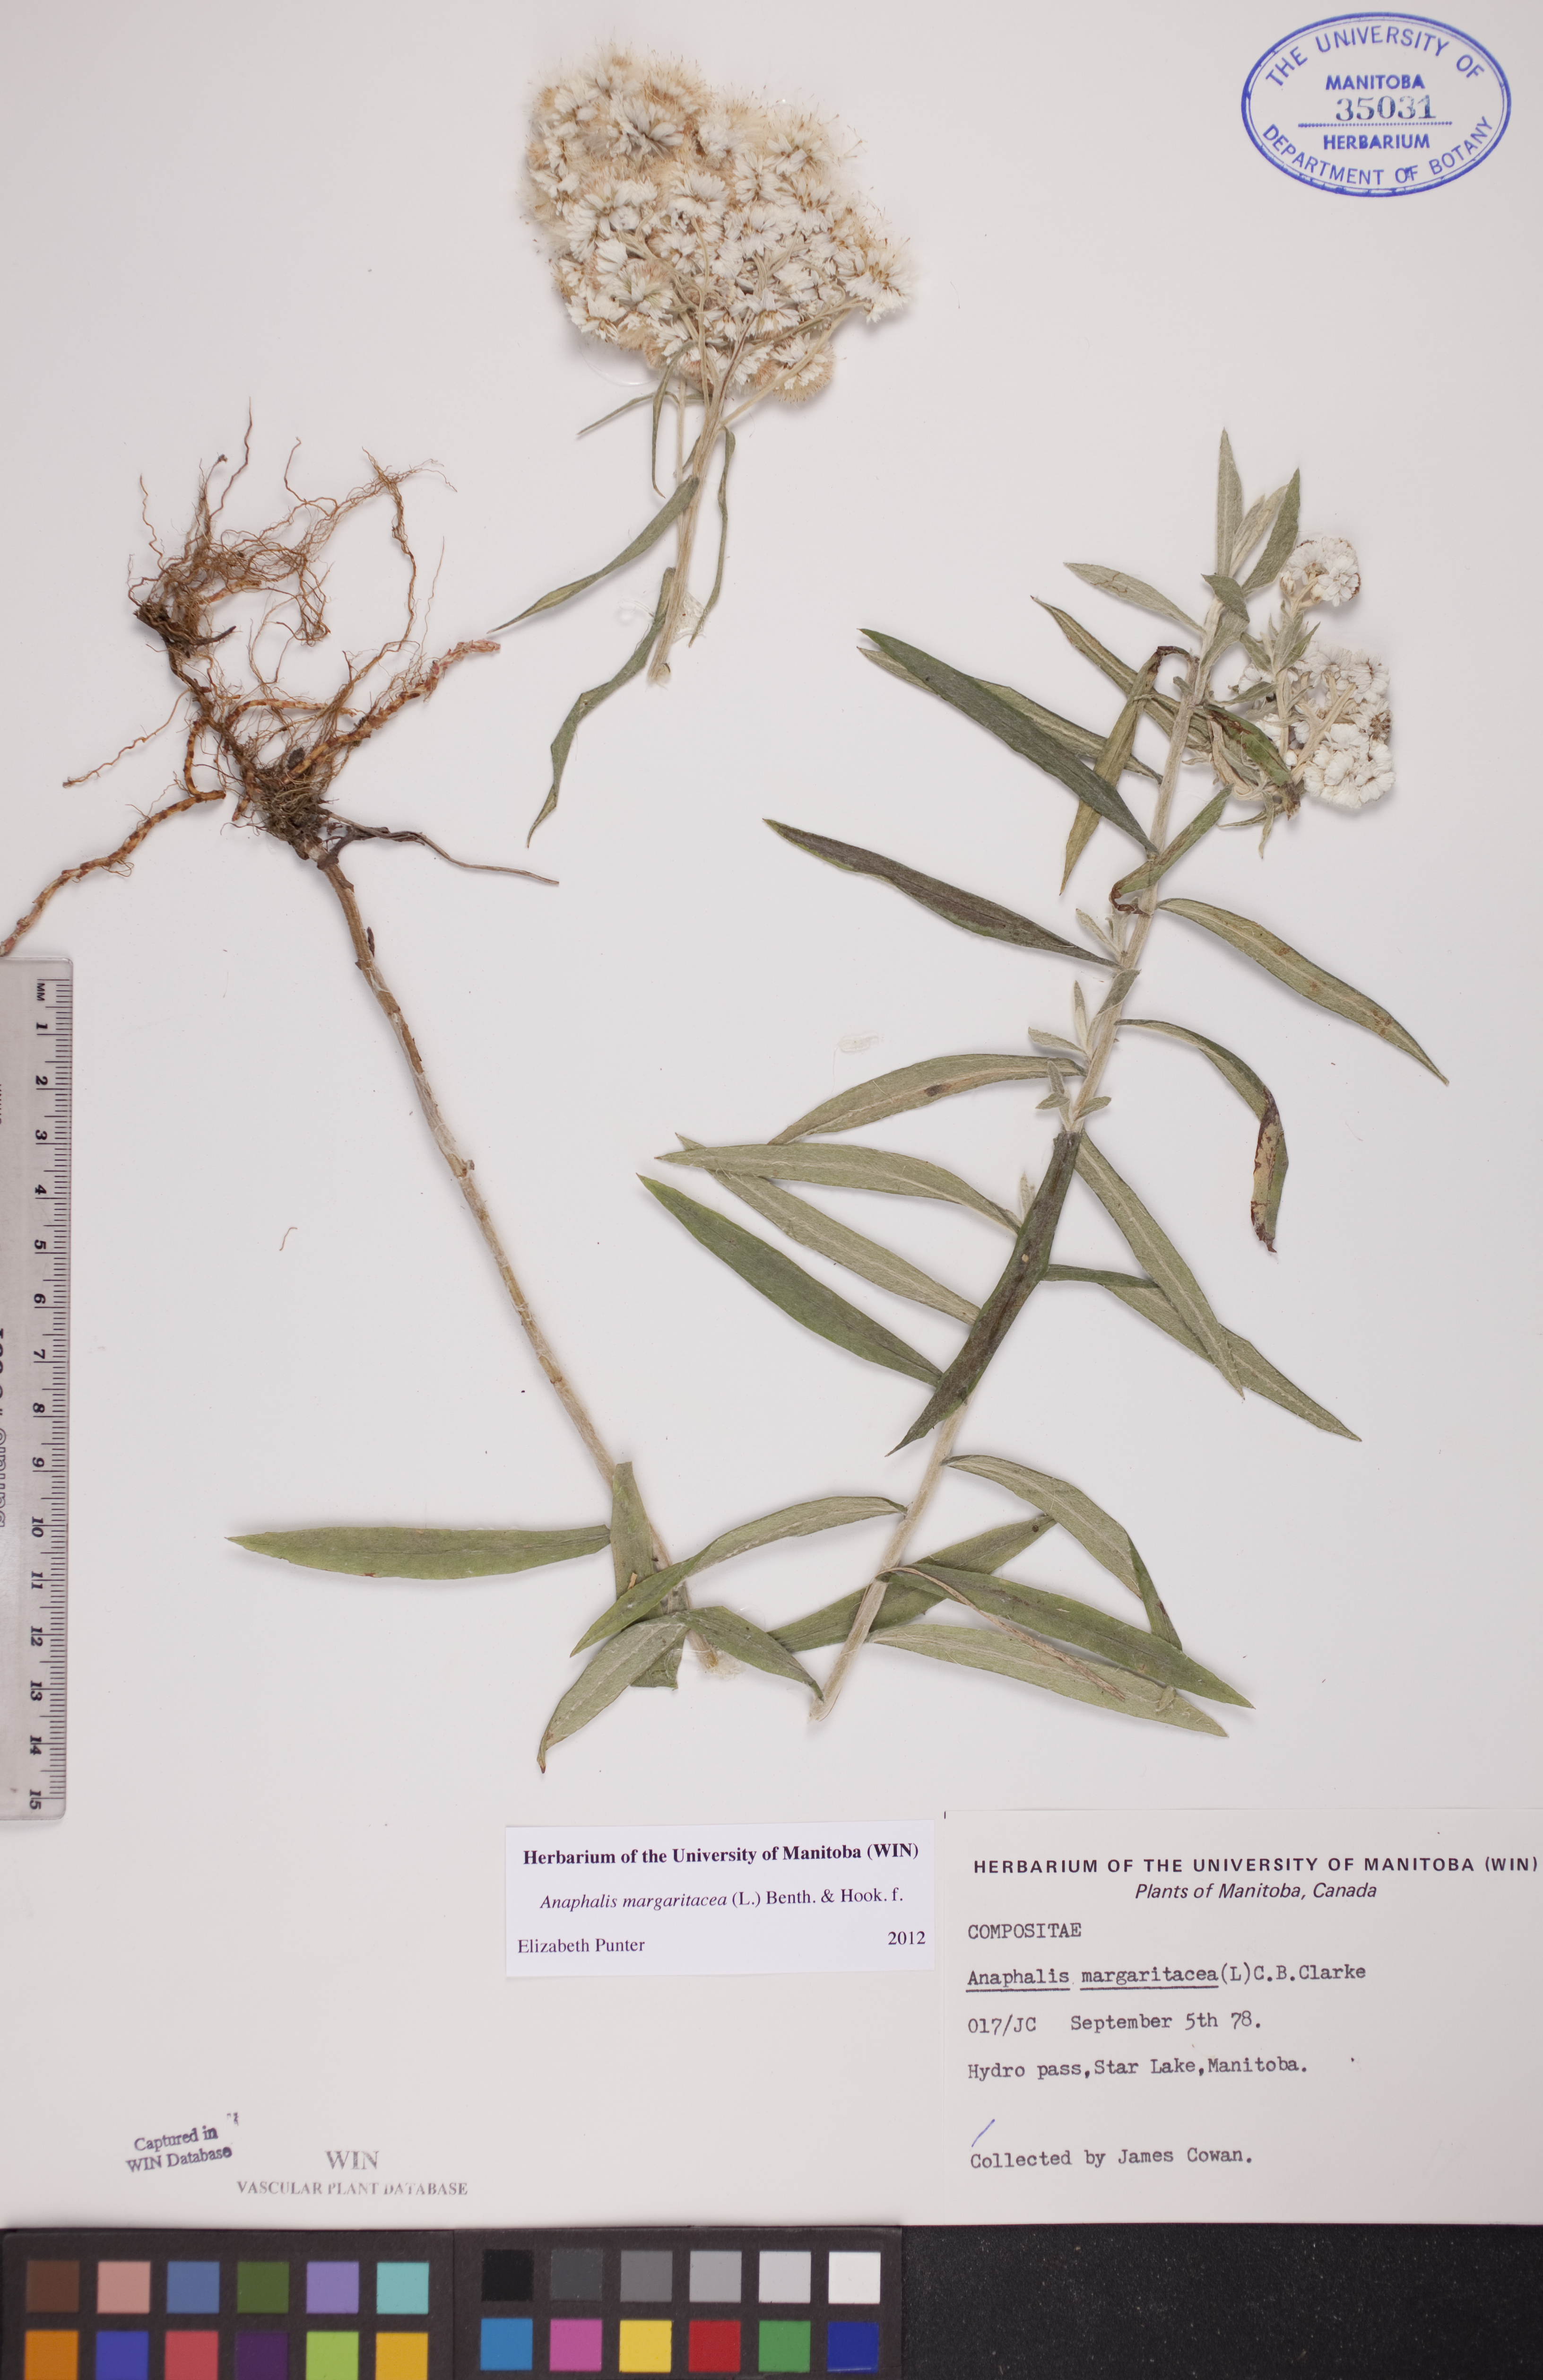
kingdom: Plantae
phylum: Tracheophyta
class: Magnoliopsida
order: Asterales
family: Asteraceae
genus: Anaphalis
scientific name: Anaphalis margaritacea
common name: Pearly everlasting
